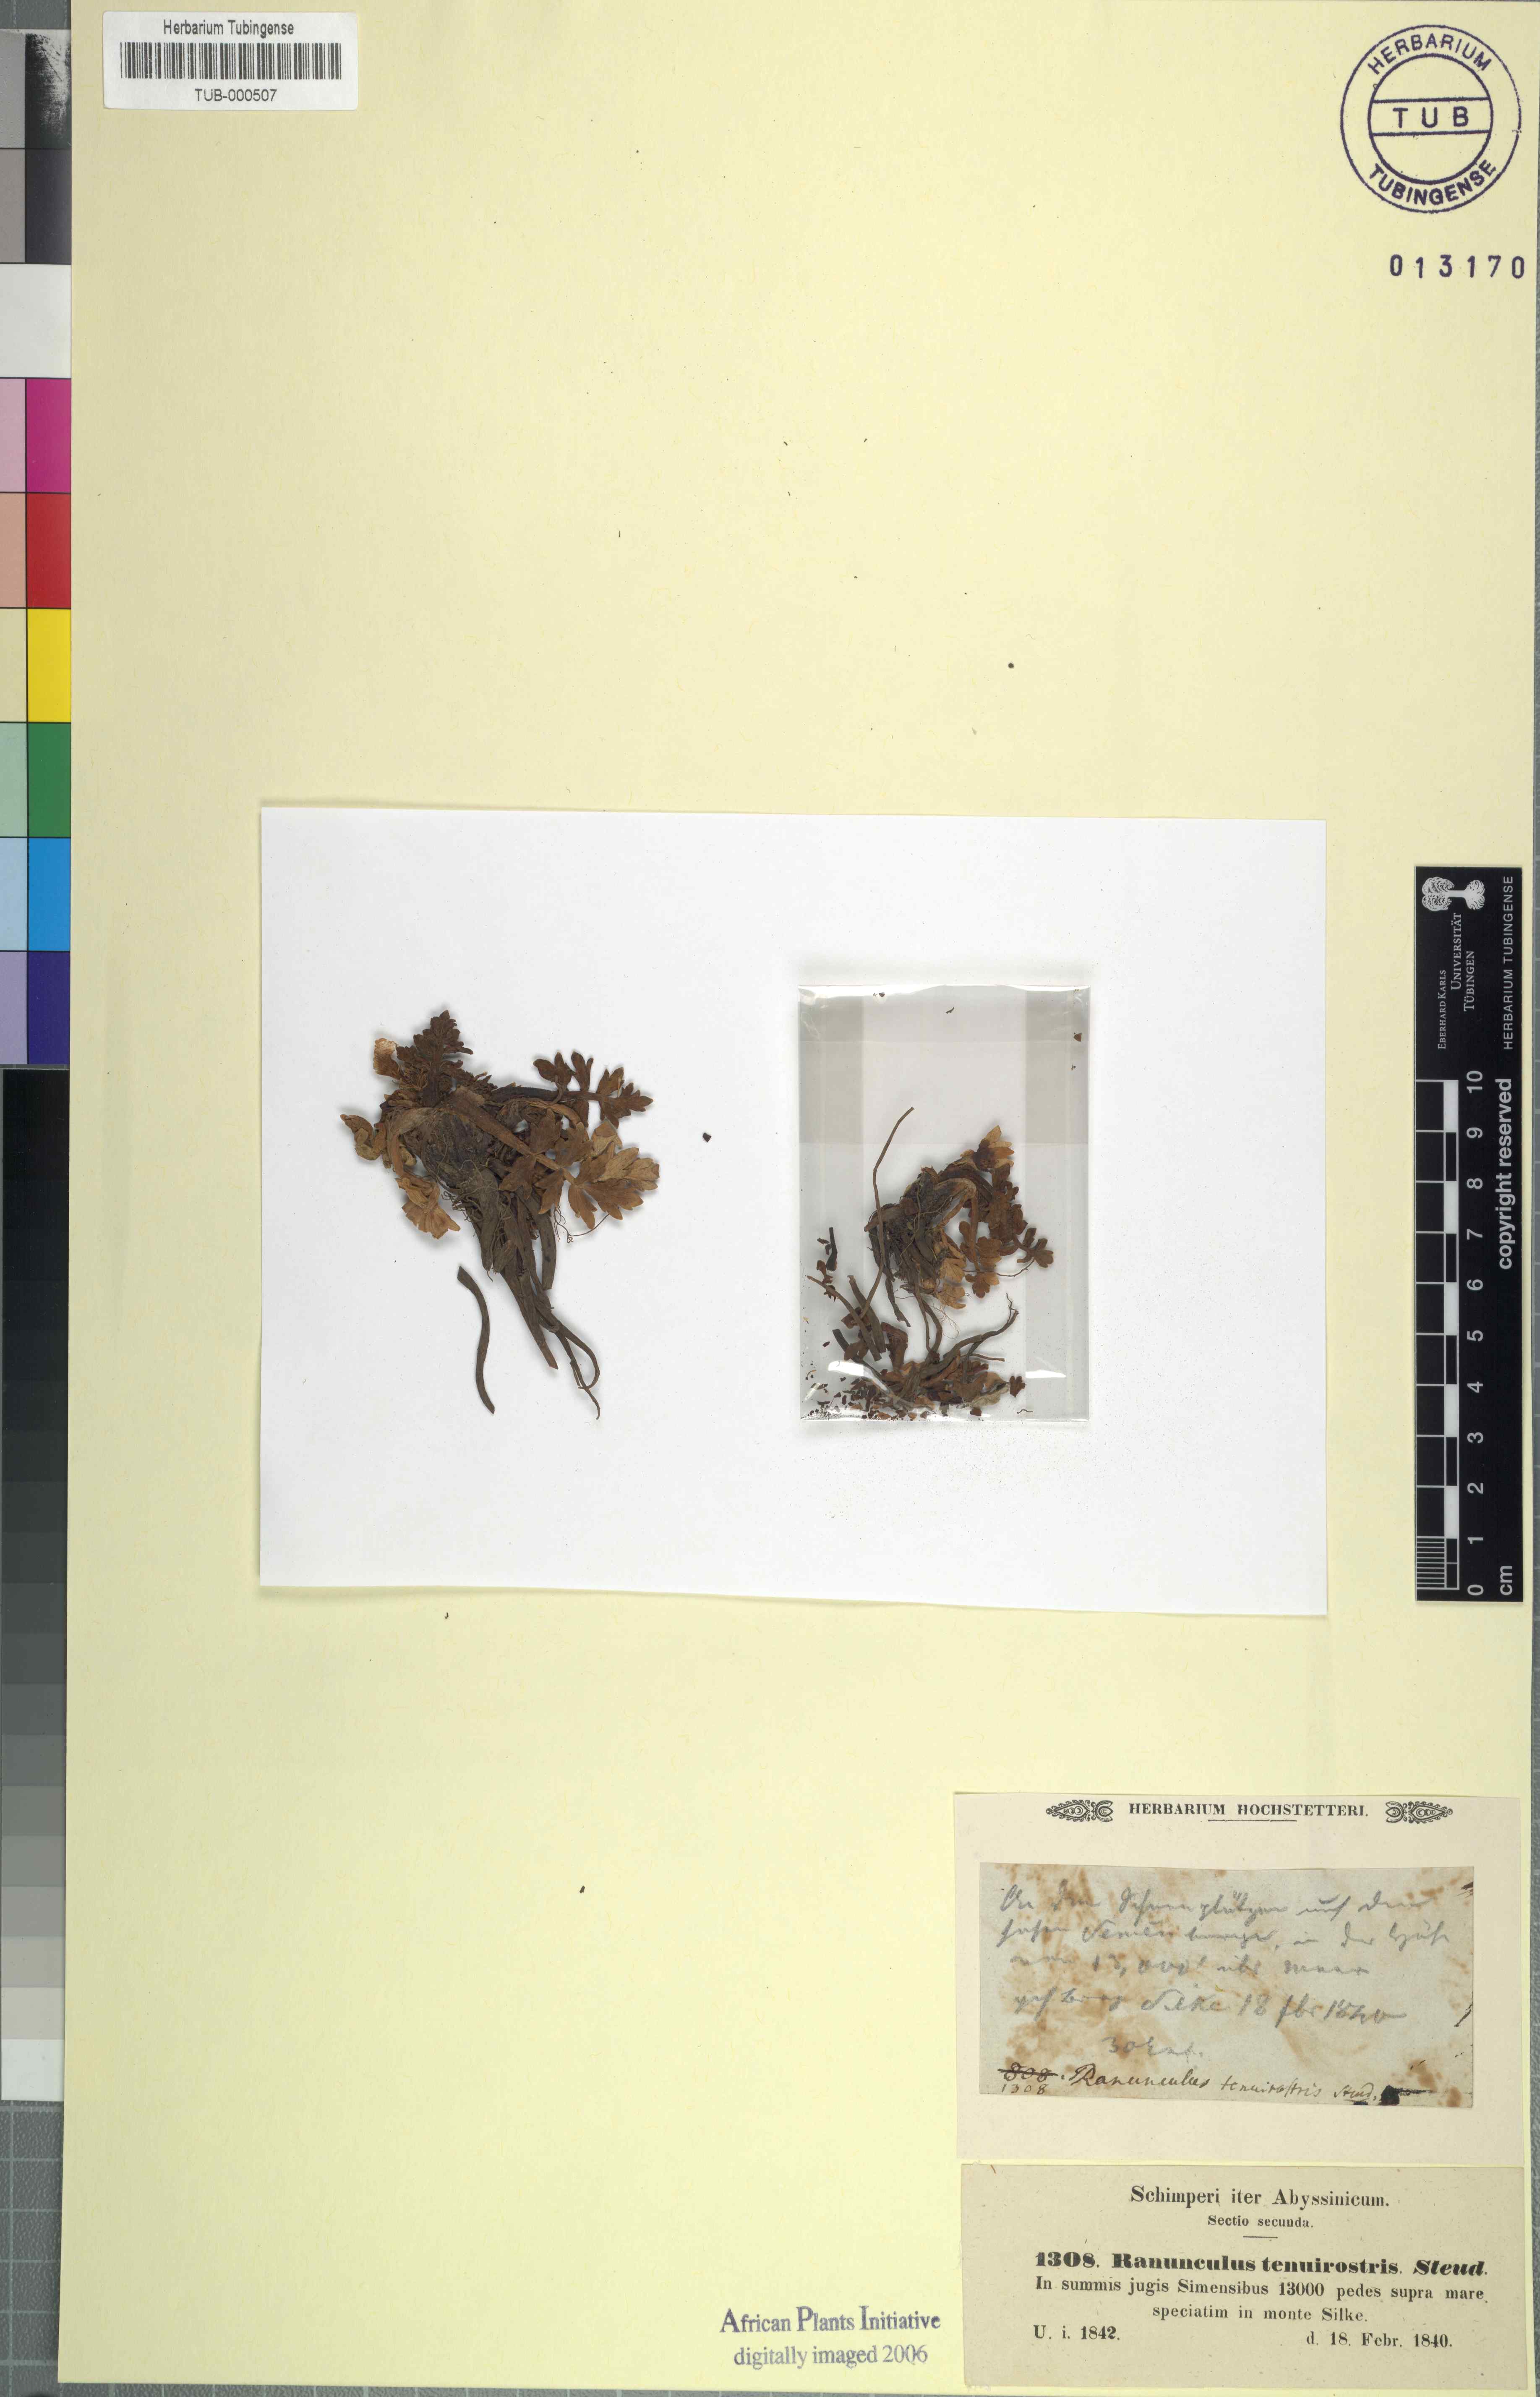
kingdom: Plantae
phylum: Tracheophyta
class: Magnoliopsida
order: Ranunculales
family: Ranunculaceae
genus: Ranunculus
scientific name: Ranunculus oreophytus
